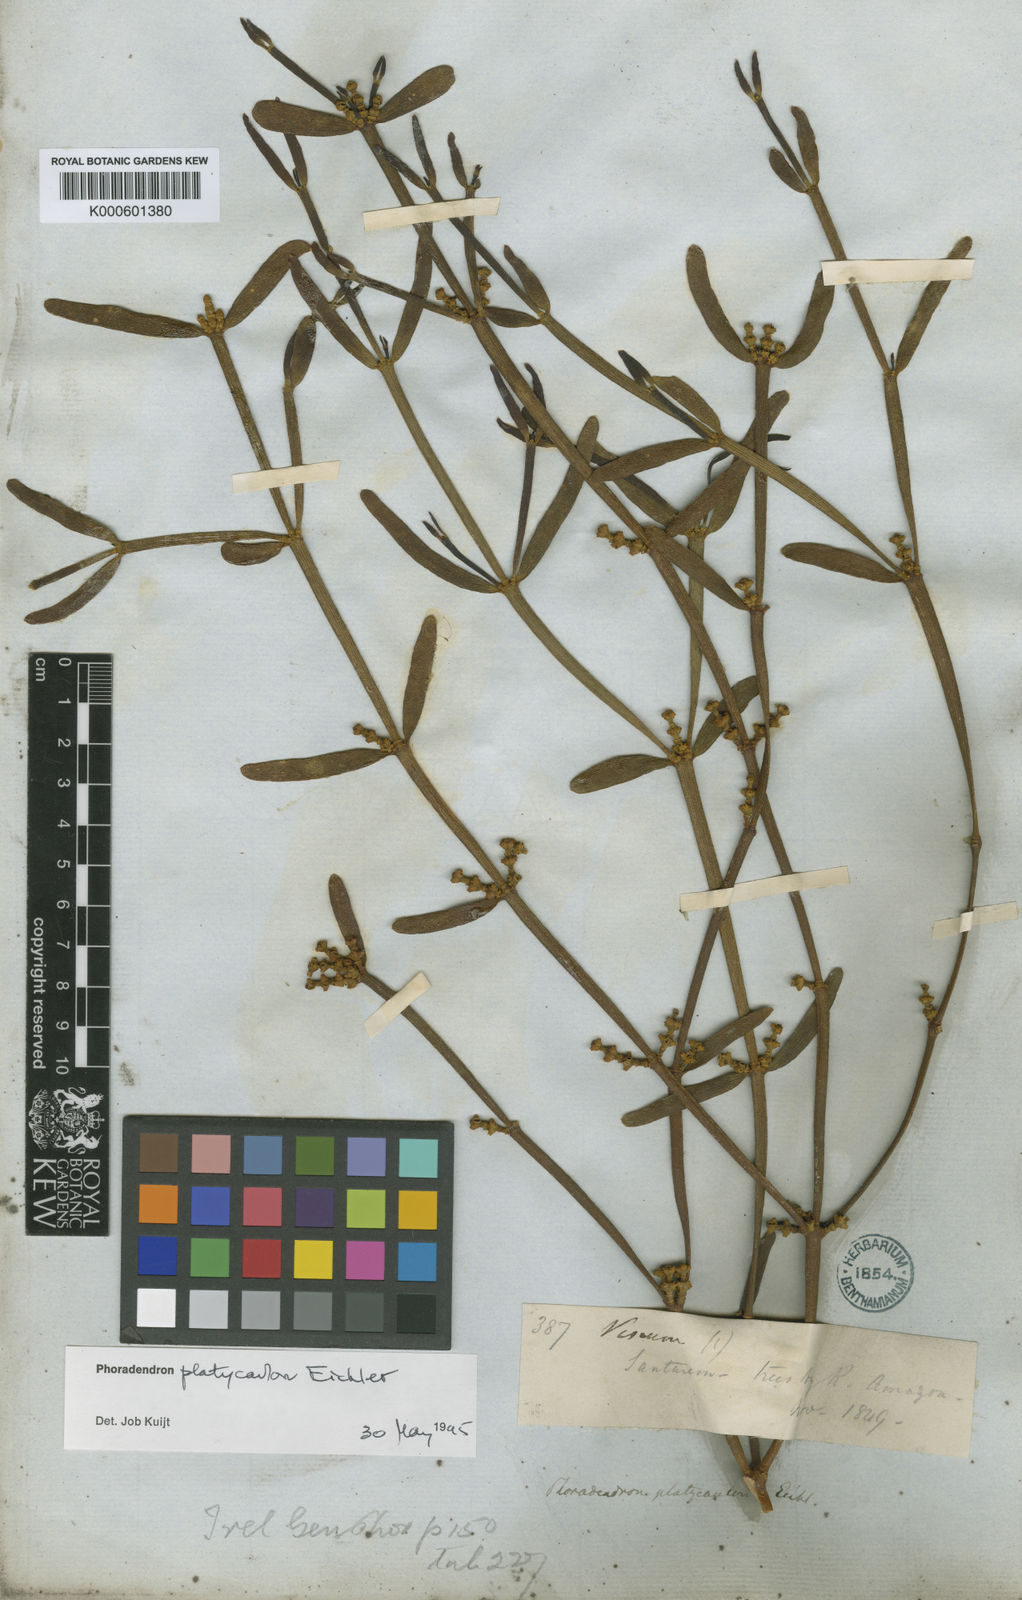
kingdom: Plantae
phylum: Tracheophyta
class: Magnoliopsida
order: Santalales
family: Viscaceae
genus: Phoradendron
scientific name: Phoradendron planiphyllum
